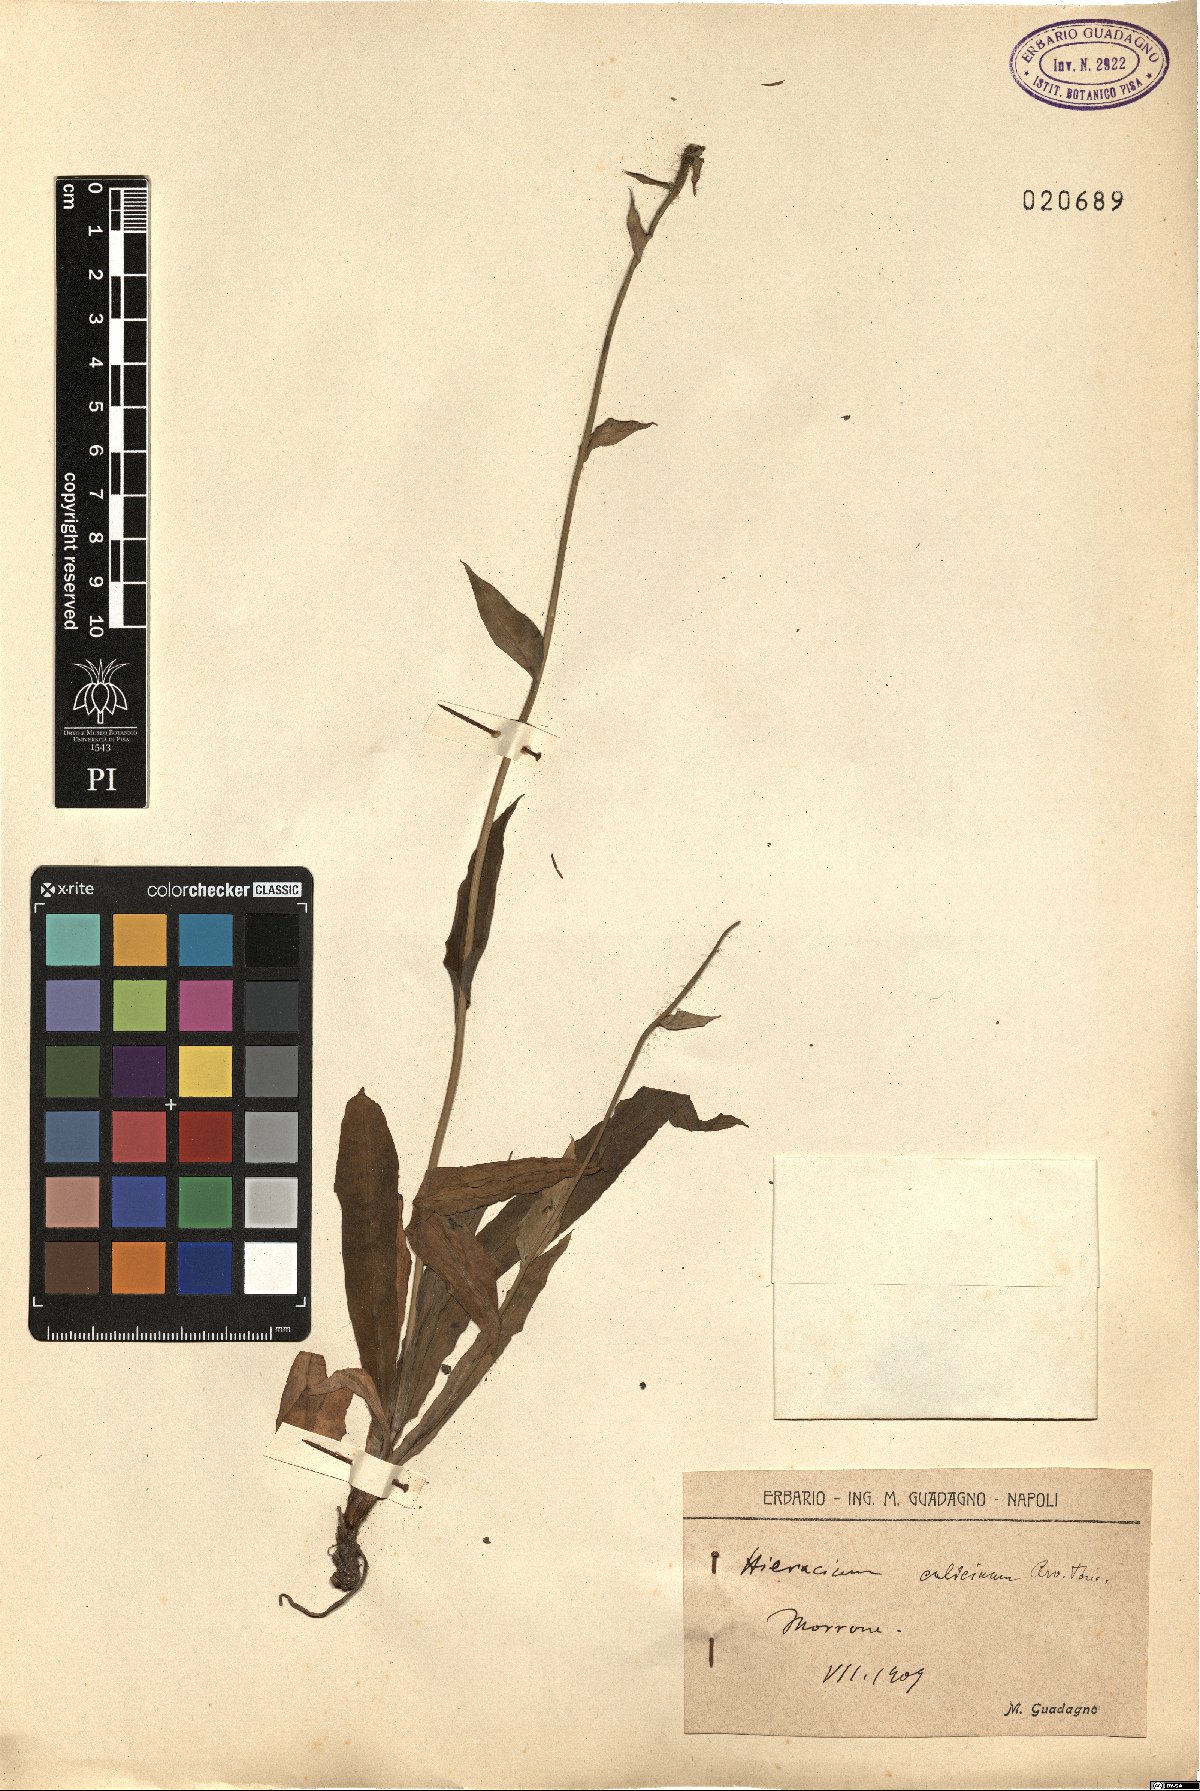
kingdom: Plantae
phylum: Tracheophyta
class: Magnoliopsida
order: Asterales
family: Asteraceae
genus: Hieracium
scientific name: Hieracium bupleuroides
